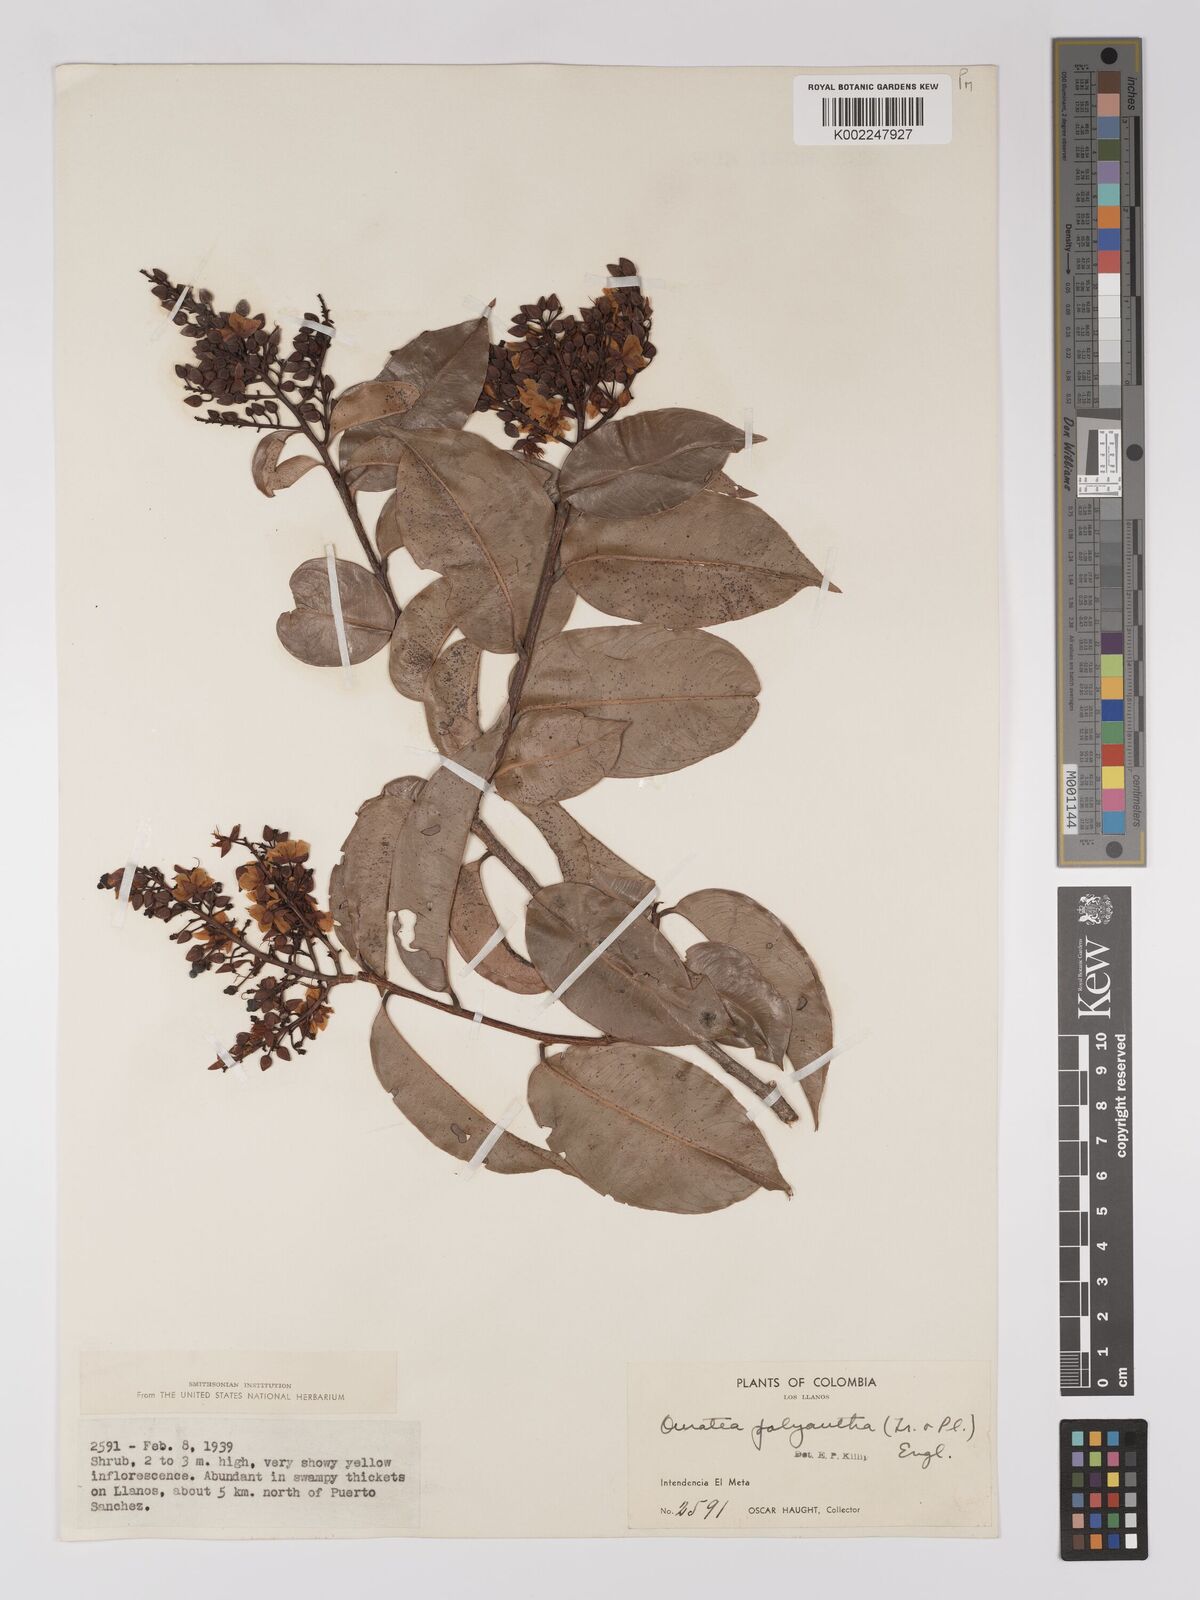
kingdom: Plantae
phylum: Tracheophyta
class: Magnoliopsida
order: Malpighiales
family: Ochnaceae
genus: Ouratea
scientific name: Ouratea polyantha
